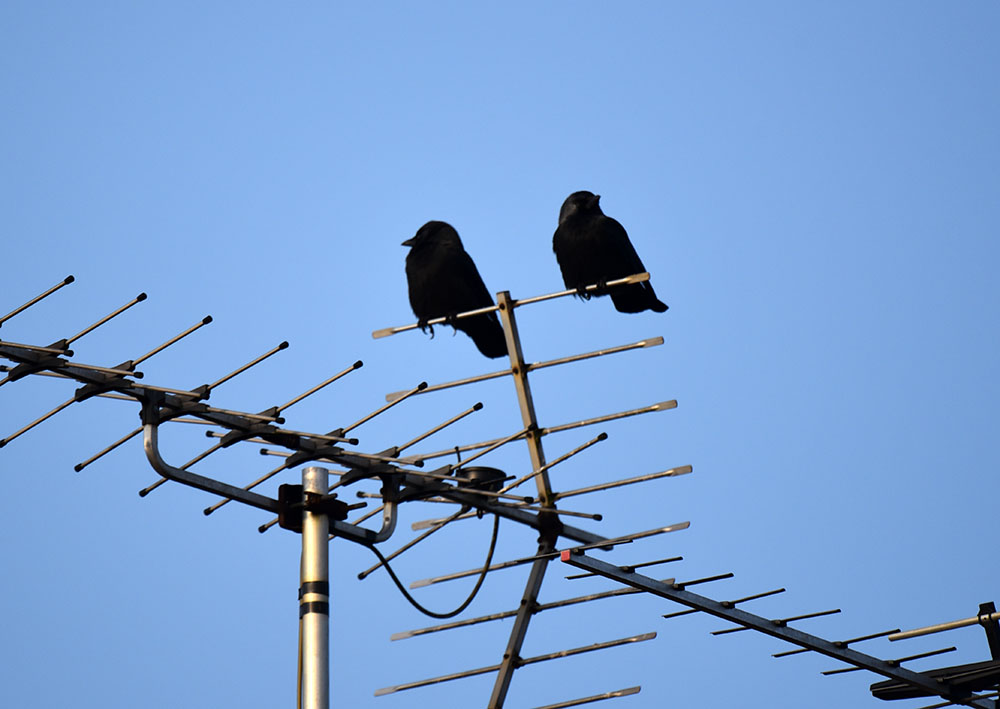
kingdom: Animalia
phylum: Chordata
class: Aves
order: Passeriformes
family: Corvidae
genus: Coloeus
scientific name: Coloeus monedula
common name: Western jackdaw
